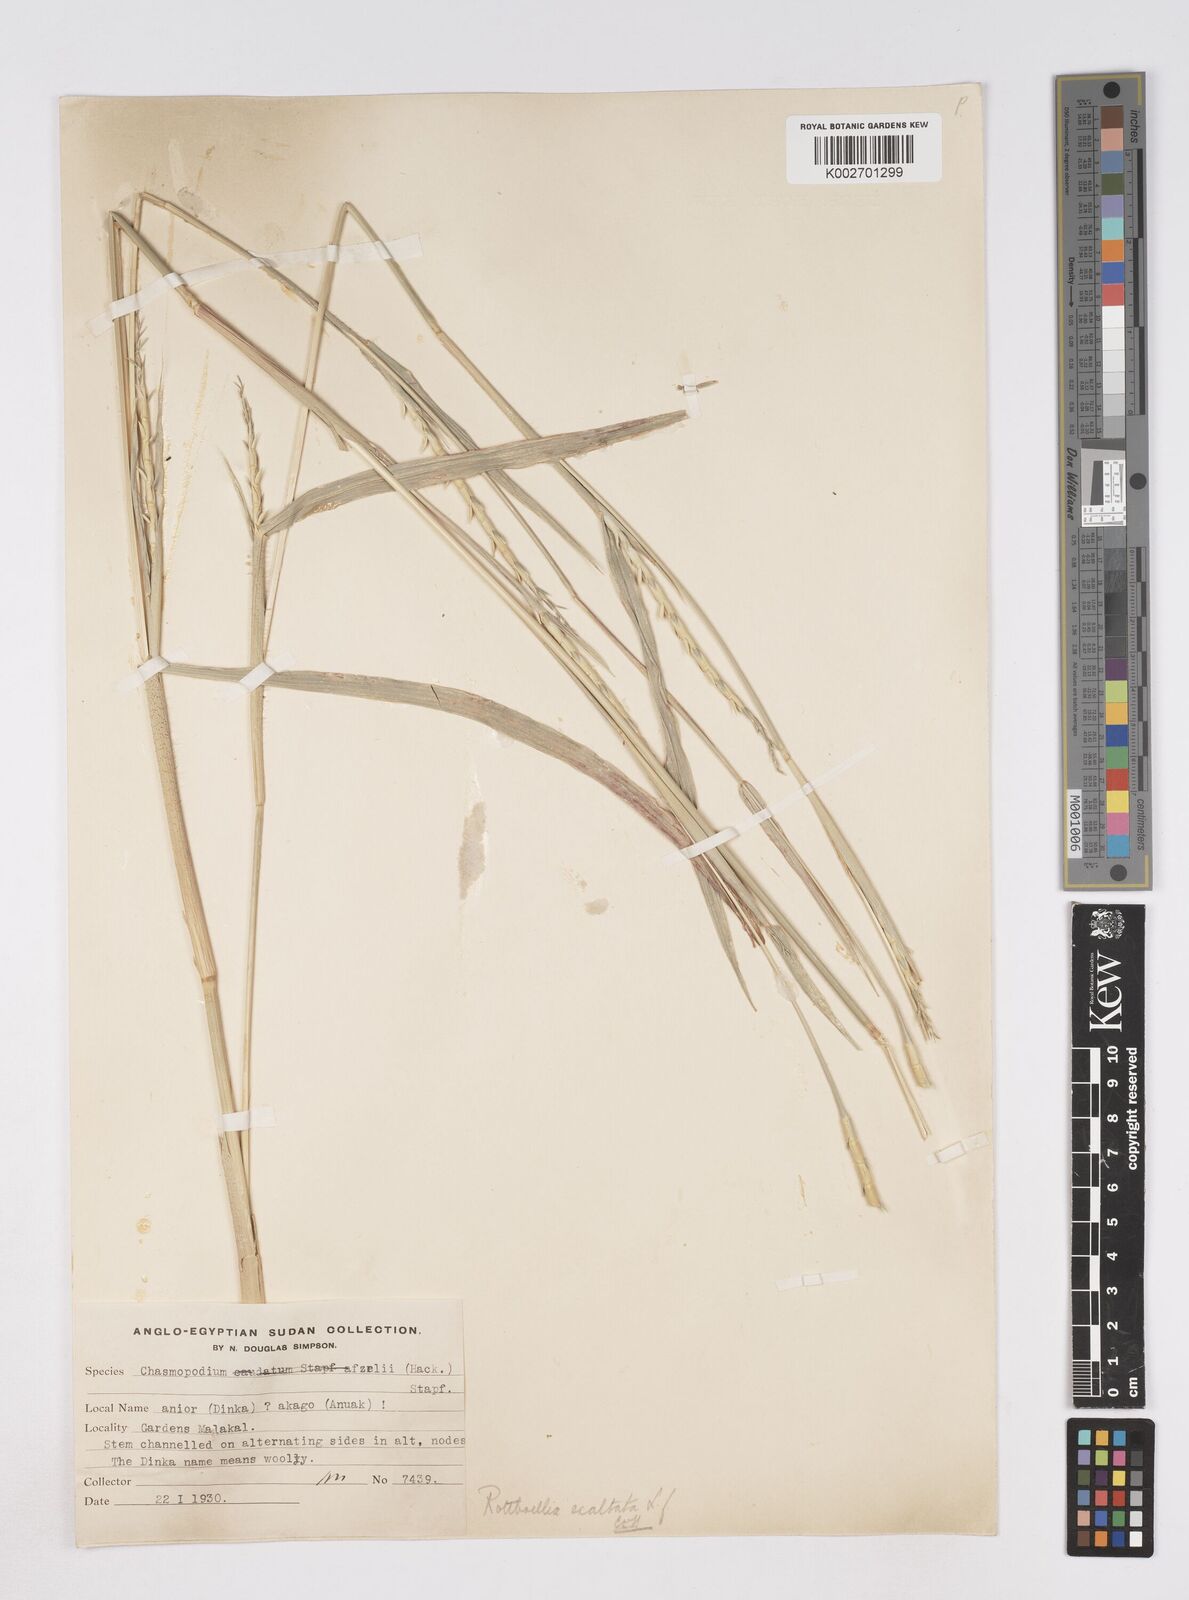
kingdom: Plantae
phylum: Tracheophyta
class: Liliopsida
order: Poales
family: Poaceae
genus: Rottboellia
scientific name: Rottboellia cochinchinensis
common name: Itchgrass
